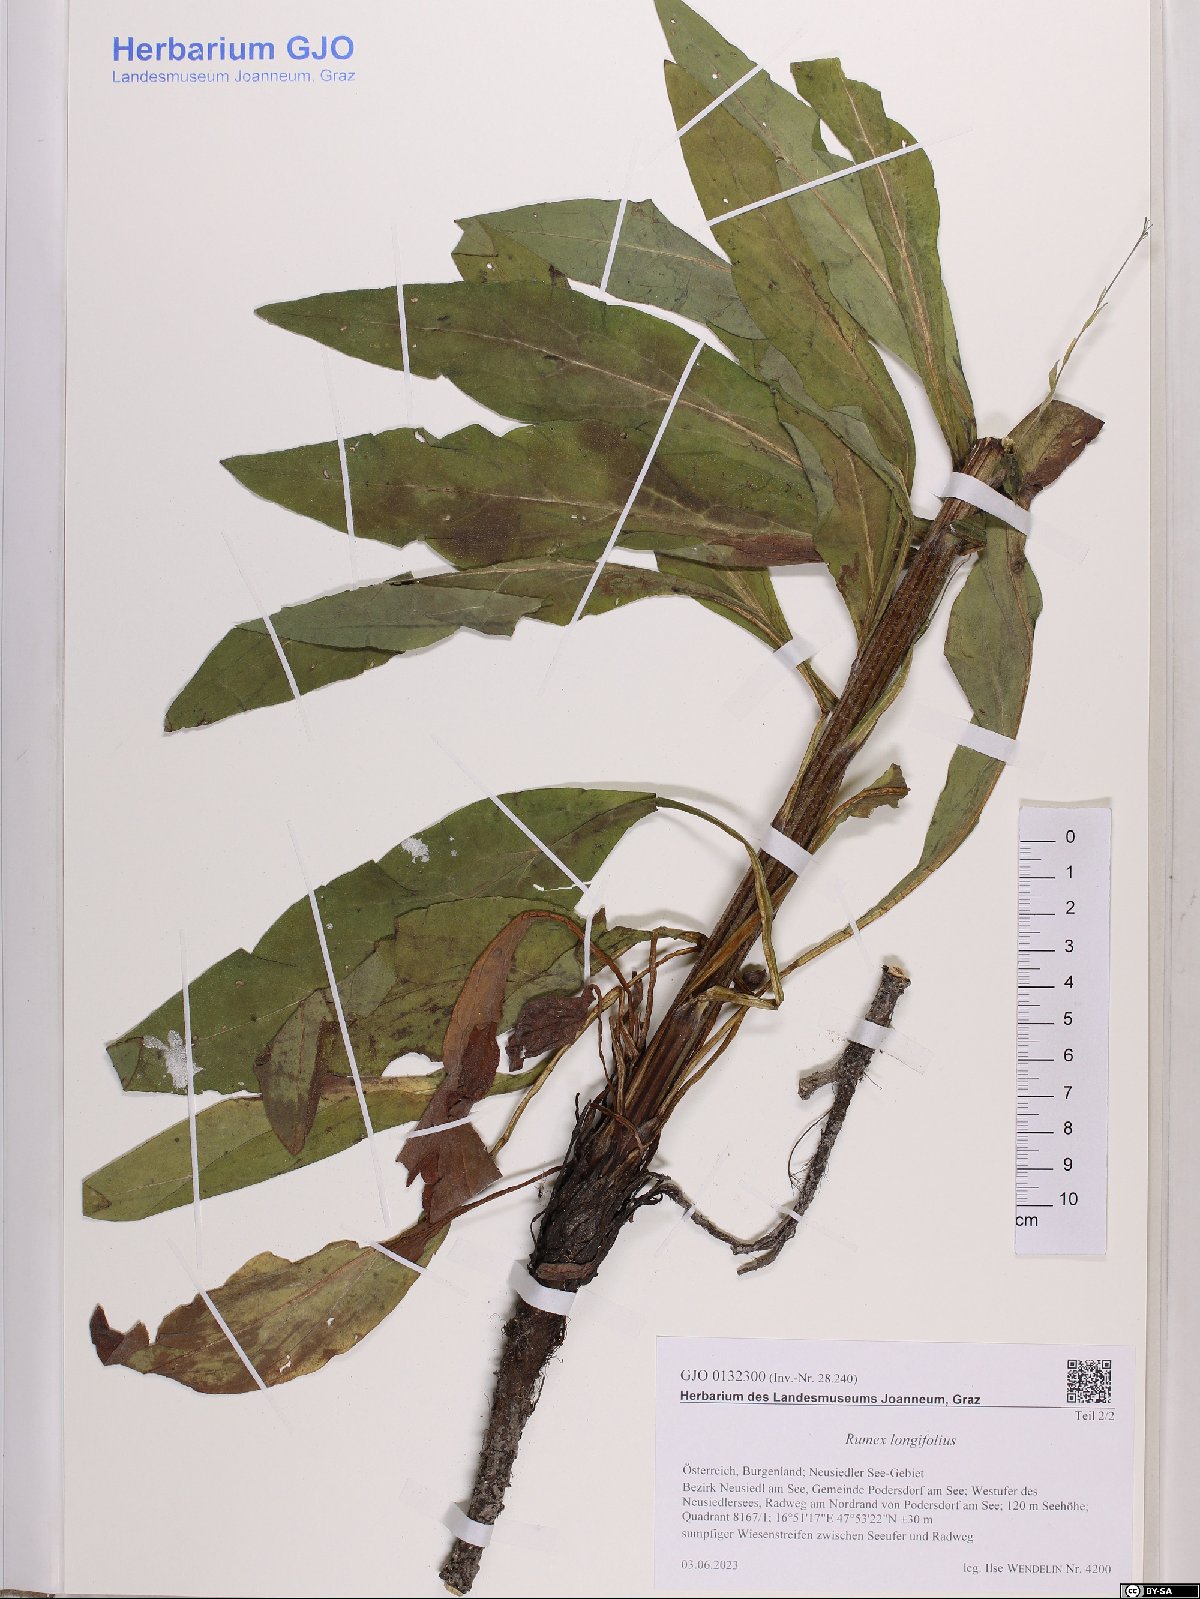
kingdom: Plantae
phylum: Tracheophyta
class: Magnoliopsida
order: Caryophyllales
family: Polygonaceae
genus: Rumex
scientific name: Rumex longifolius
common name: Dooryard dock
